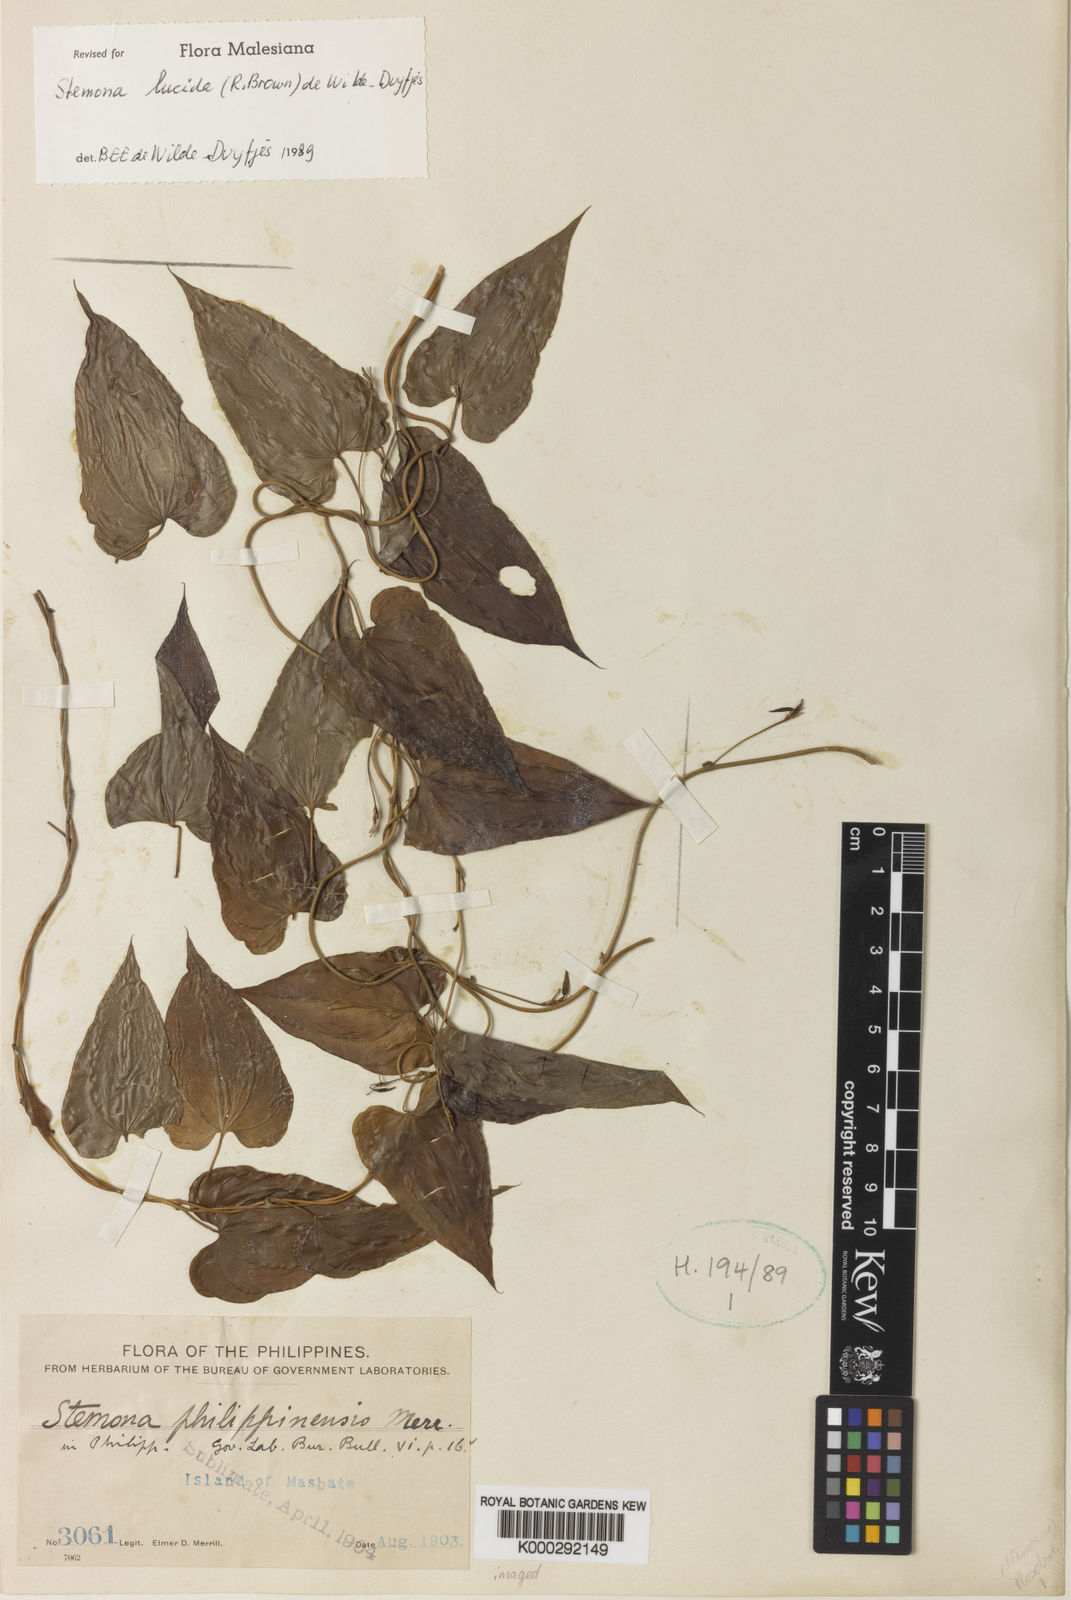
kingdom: Plantae
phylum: Tracheophyta
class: Liliopsida
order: Pandanales
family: Stemonaceae
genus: Stemona
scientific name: Stemona lucida
